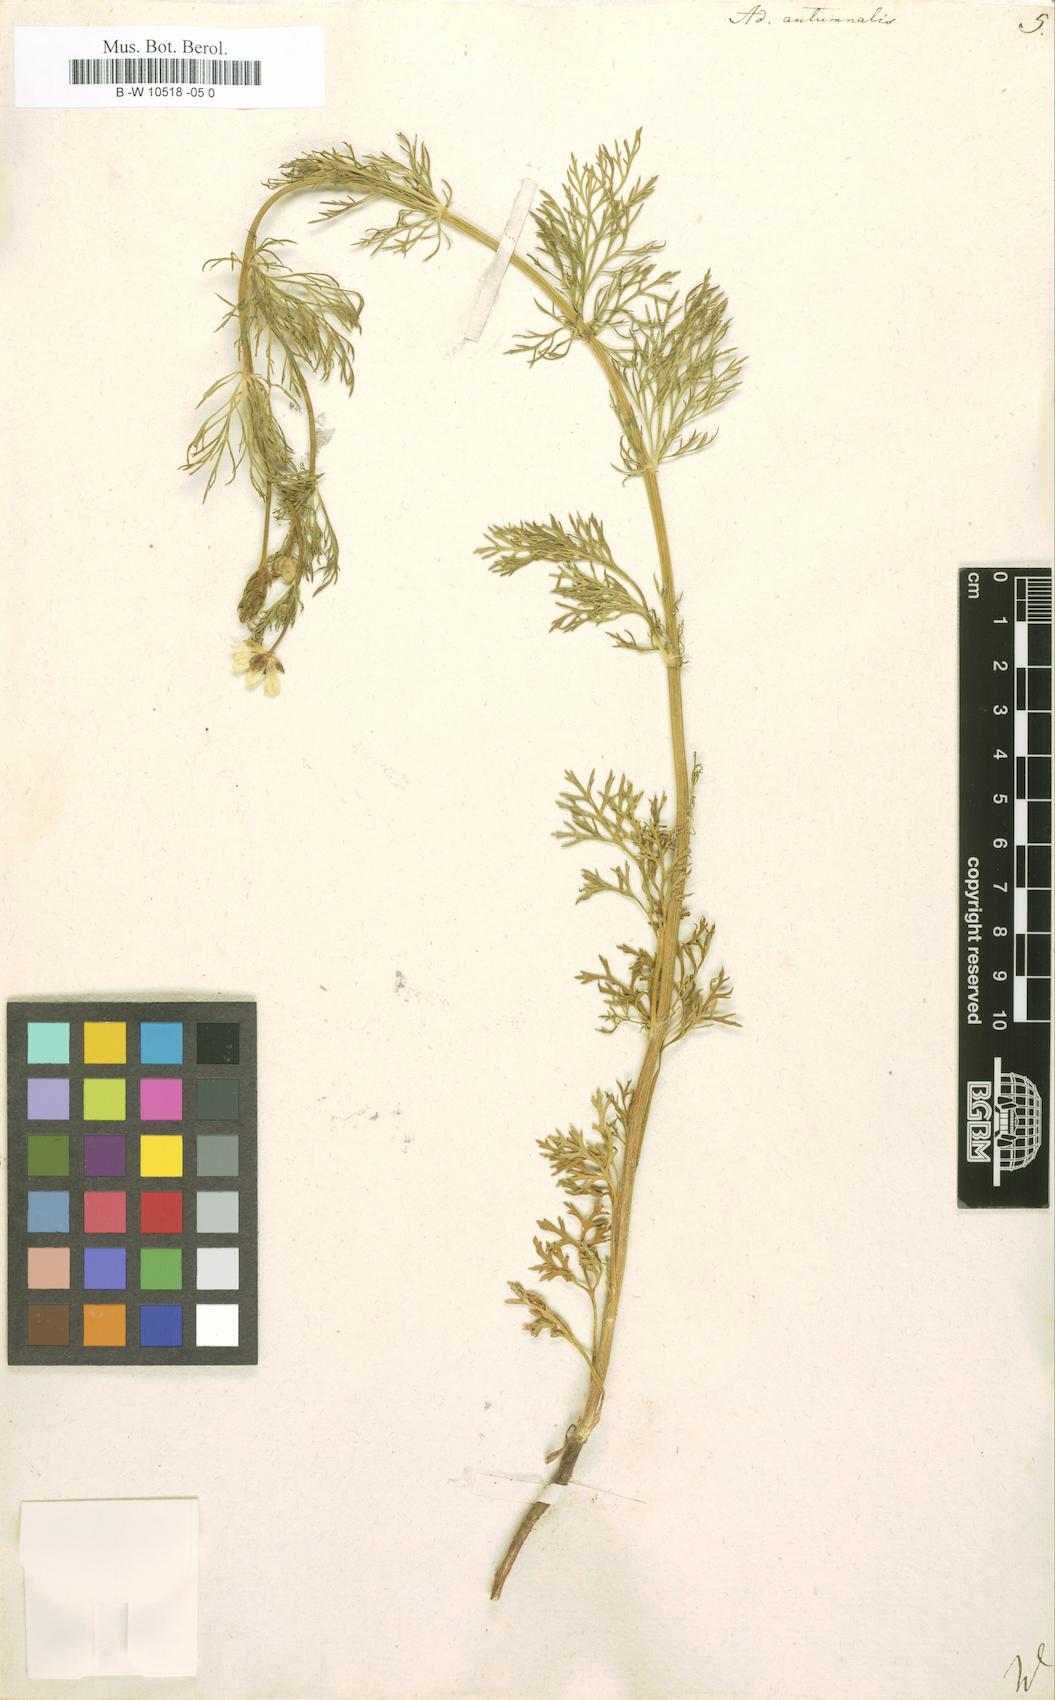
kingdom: Plantae
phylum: Tracheophyta
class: Magnoliopsida
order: Ranunculales
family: Ranunculaceae
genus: Adonis
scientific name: Adonis annua
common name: Pheasant's-eye
